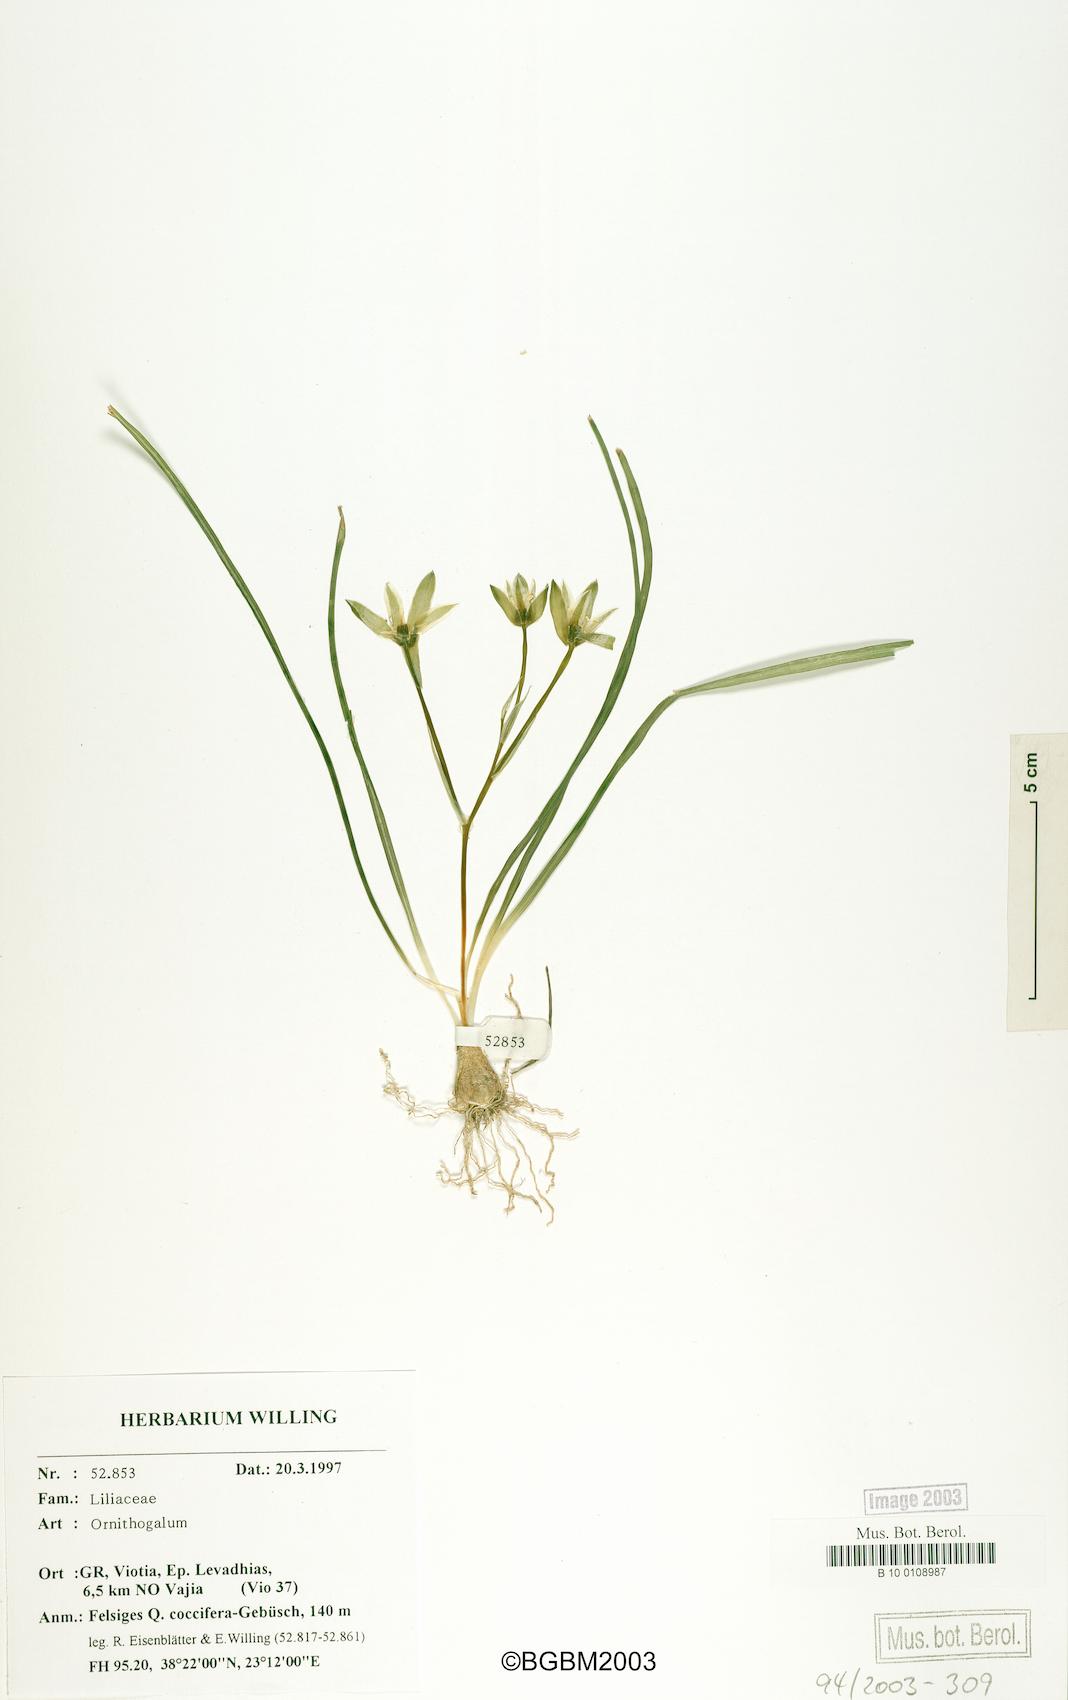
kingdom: Plantae
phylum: Tracheophyta
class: Liliopsida
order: Asparagales
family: Asparagaceae
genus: Ornithogalum
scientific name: Ornithogalum
